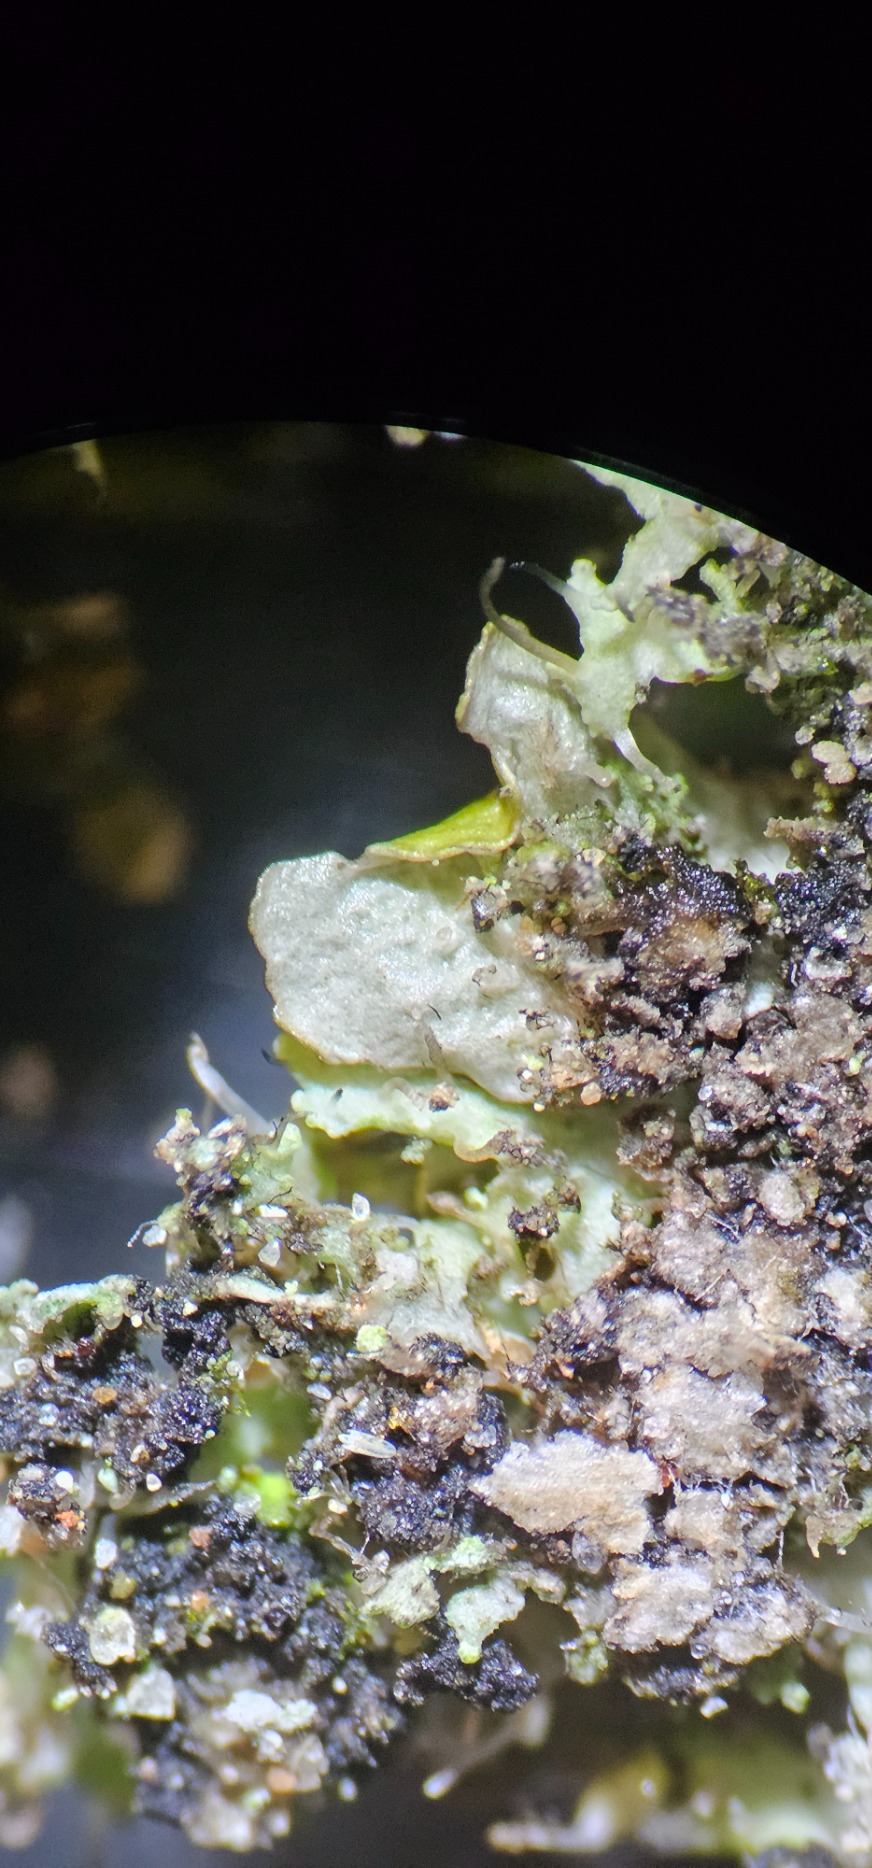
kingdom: Fungi
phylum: Ascomycota
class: Lecanoromycetes
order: Lecanorales
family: Parmeliaceae
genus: Melanohalea
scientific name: Melanohalea exasperatula
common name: Kølle-skållav
